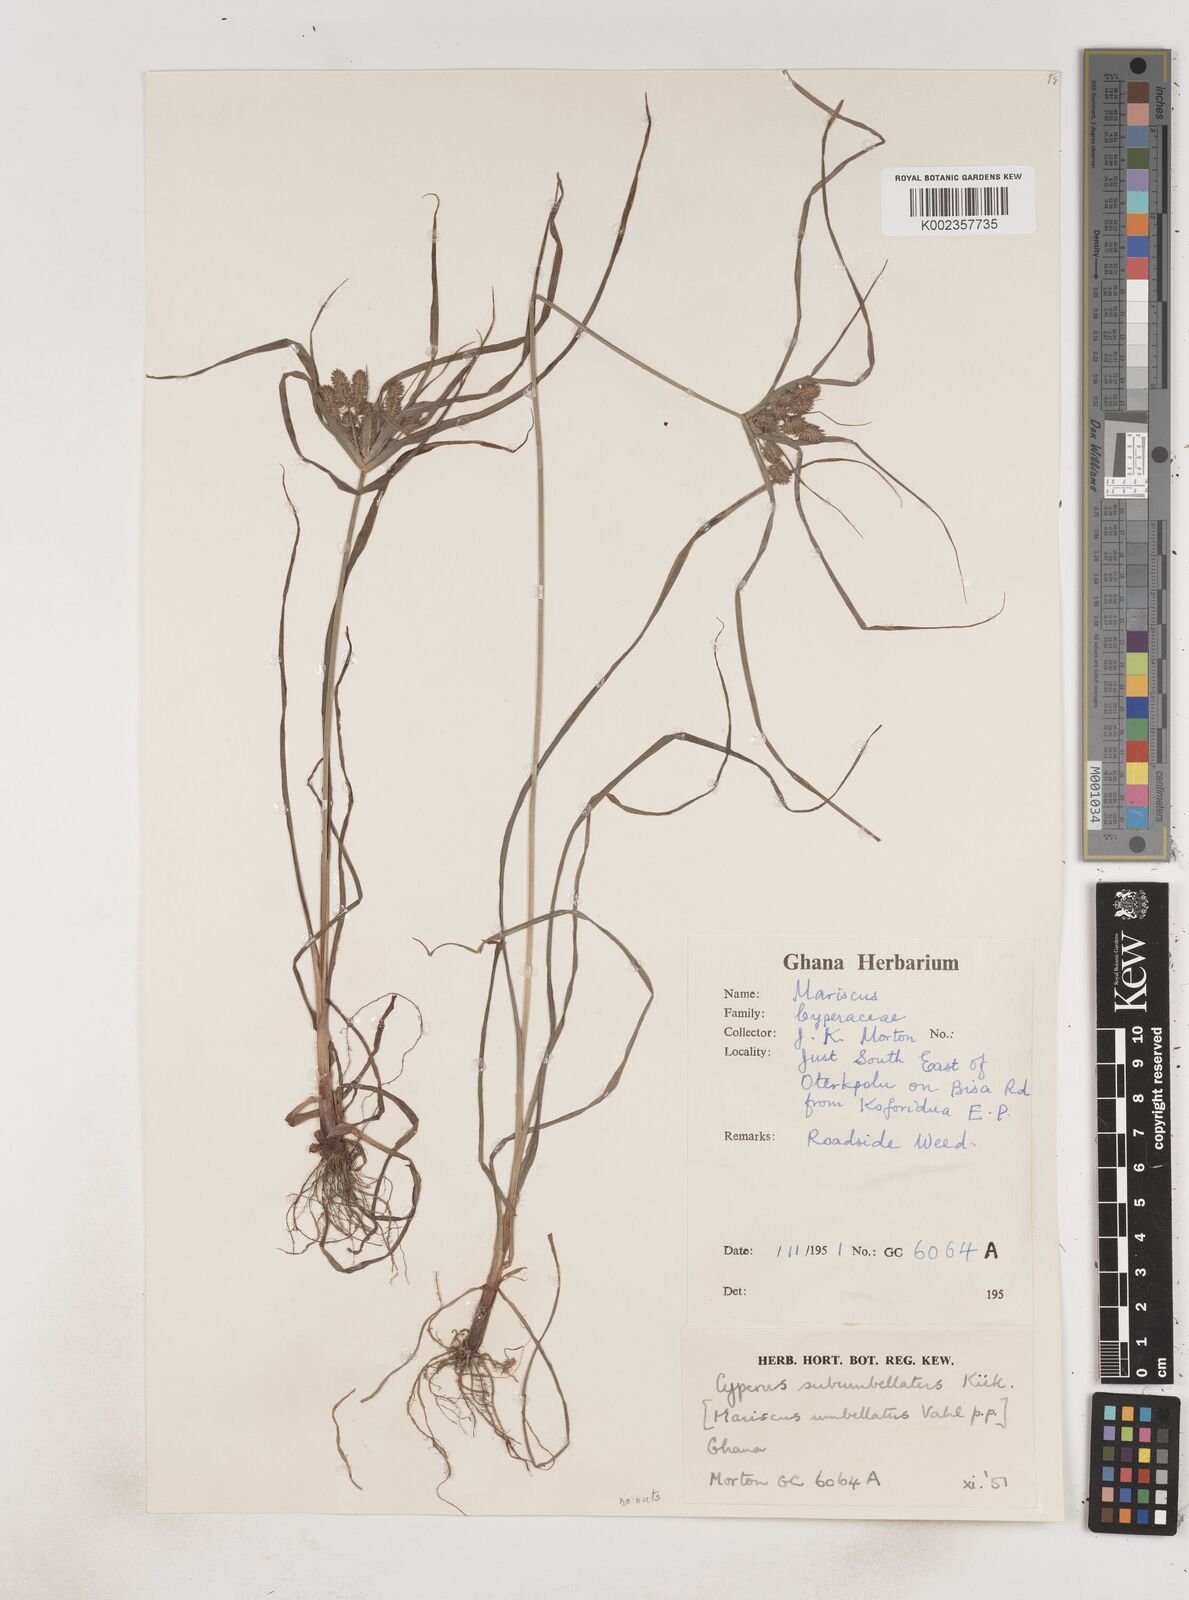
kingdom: Plantae
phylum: Tracheophyta
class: Liliopsida
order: Poales
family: Cyperaceae
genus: Cyperus
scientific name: Cyperus sublimis
